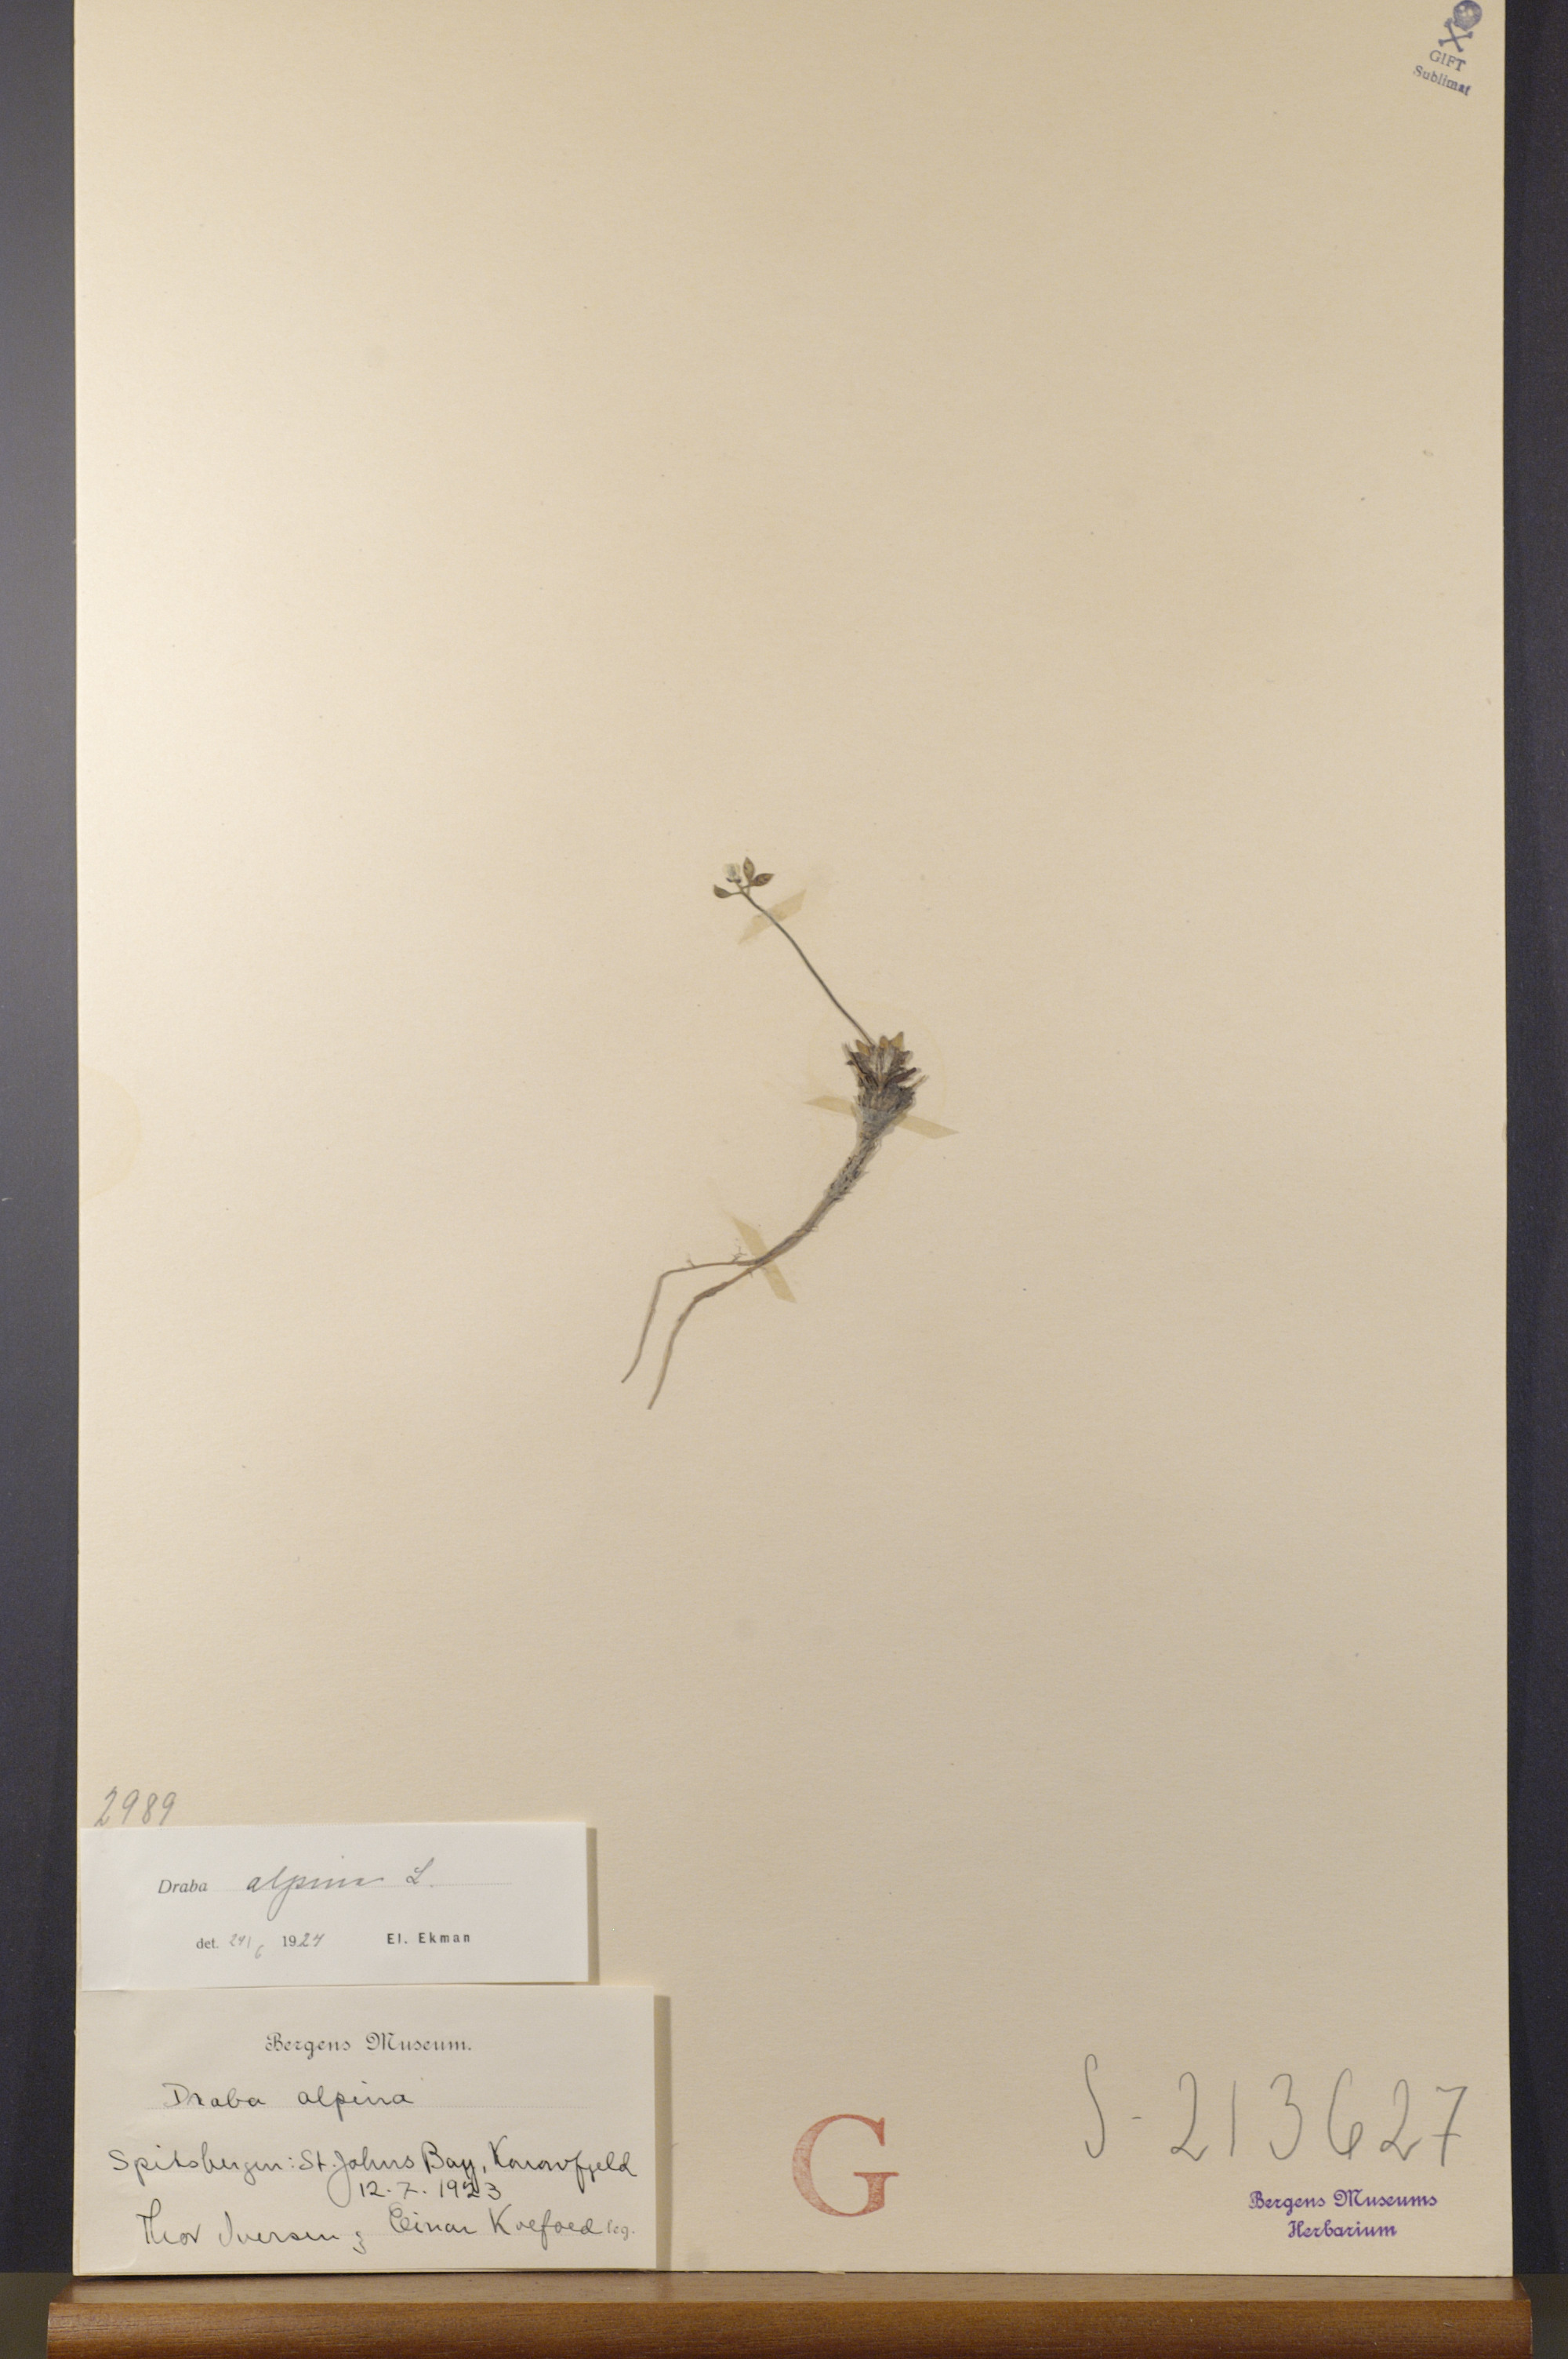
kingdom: Plantae
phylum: Tracheophyta
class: Magnoliopsida
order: Brassicales
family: Brassicaceae
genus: Draba
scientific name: Draba alpina
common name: Alpine draba
